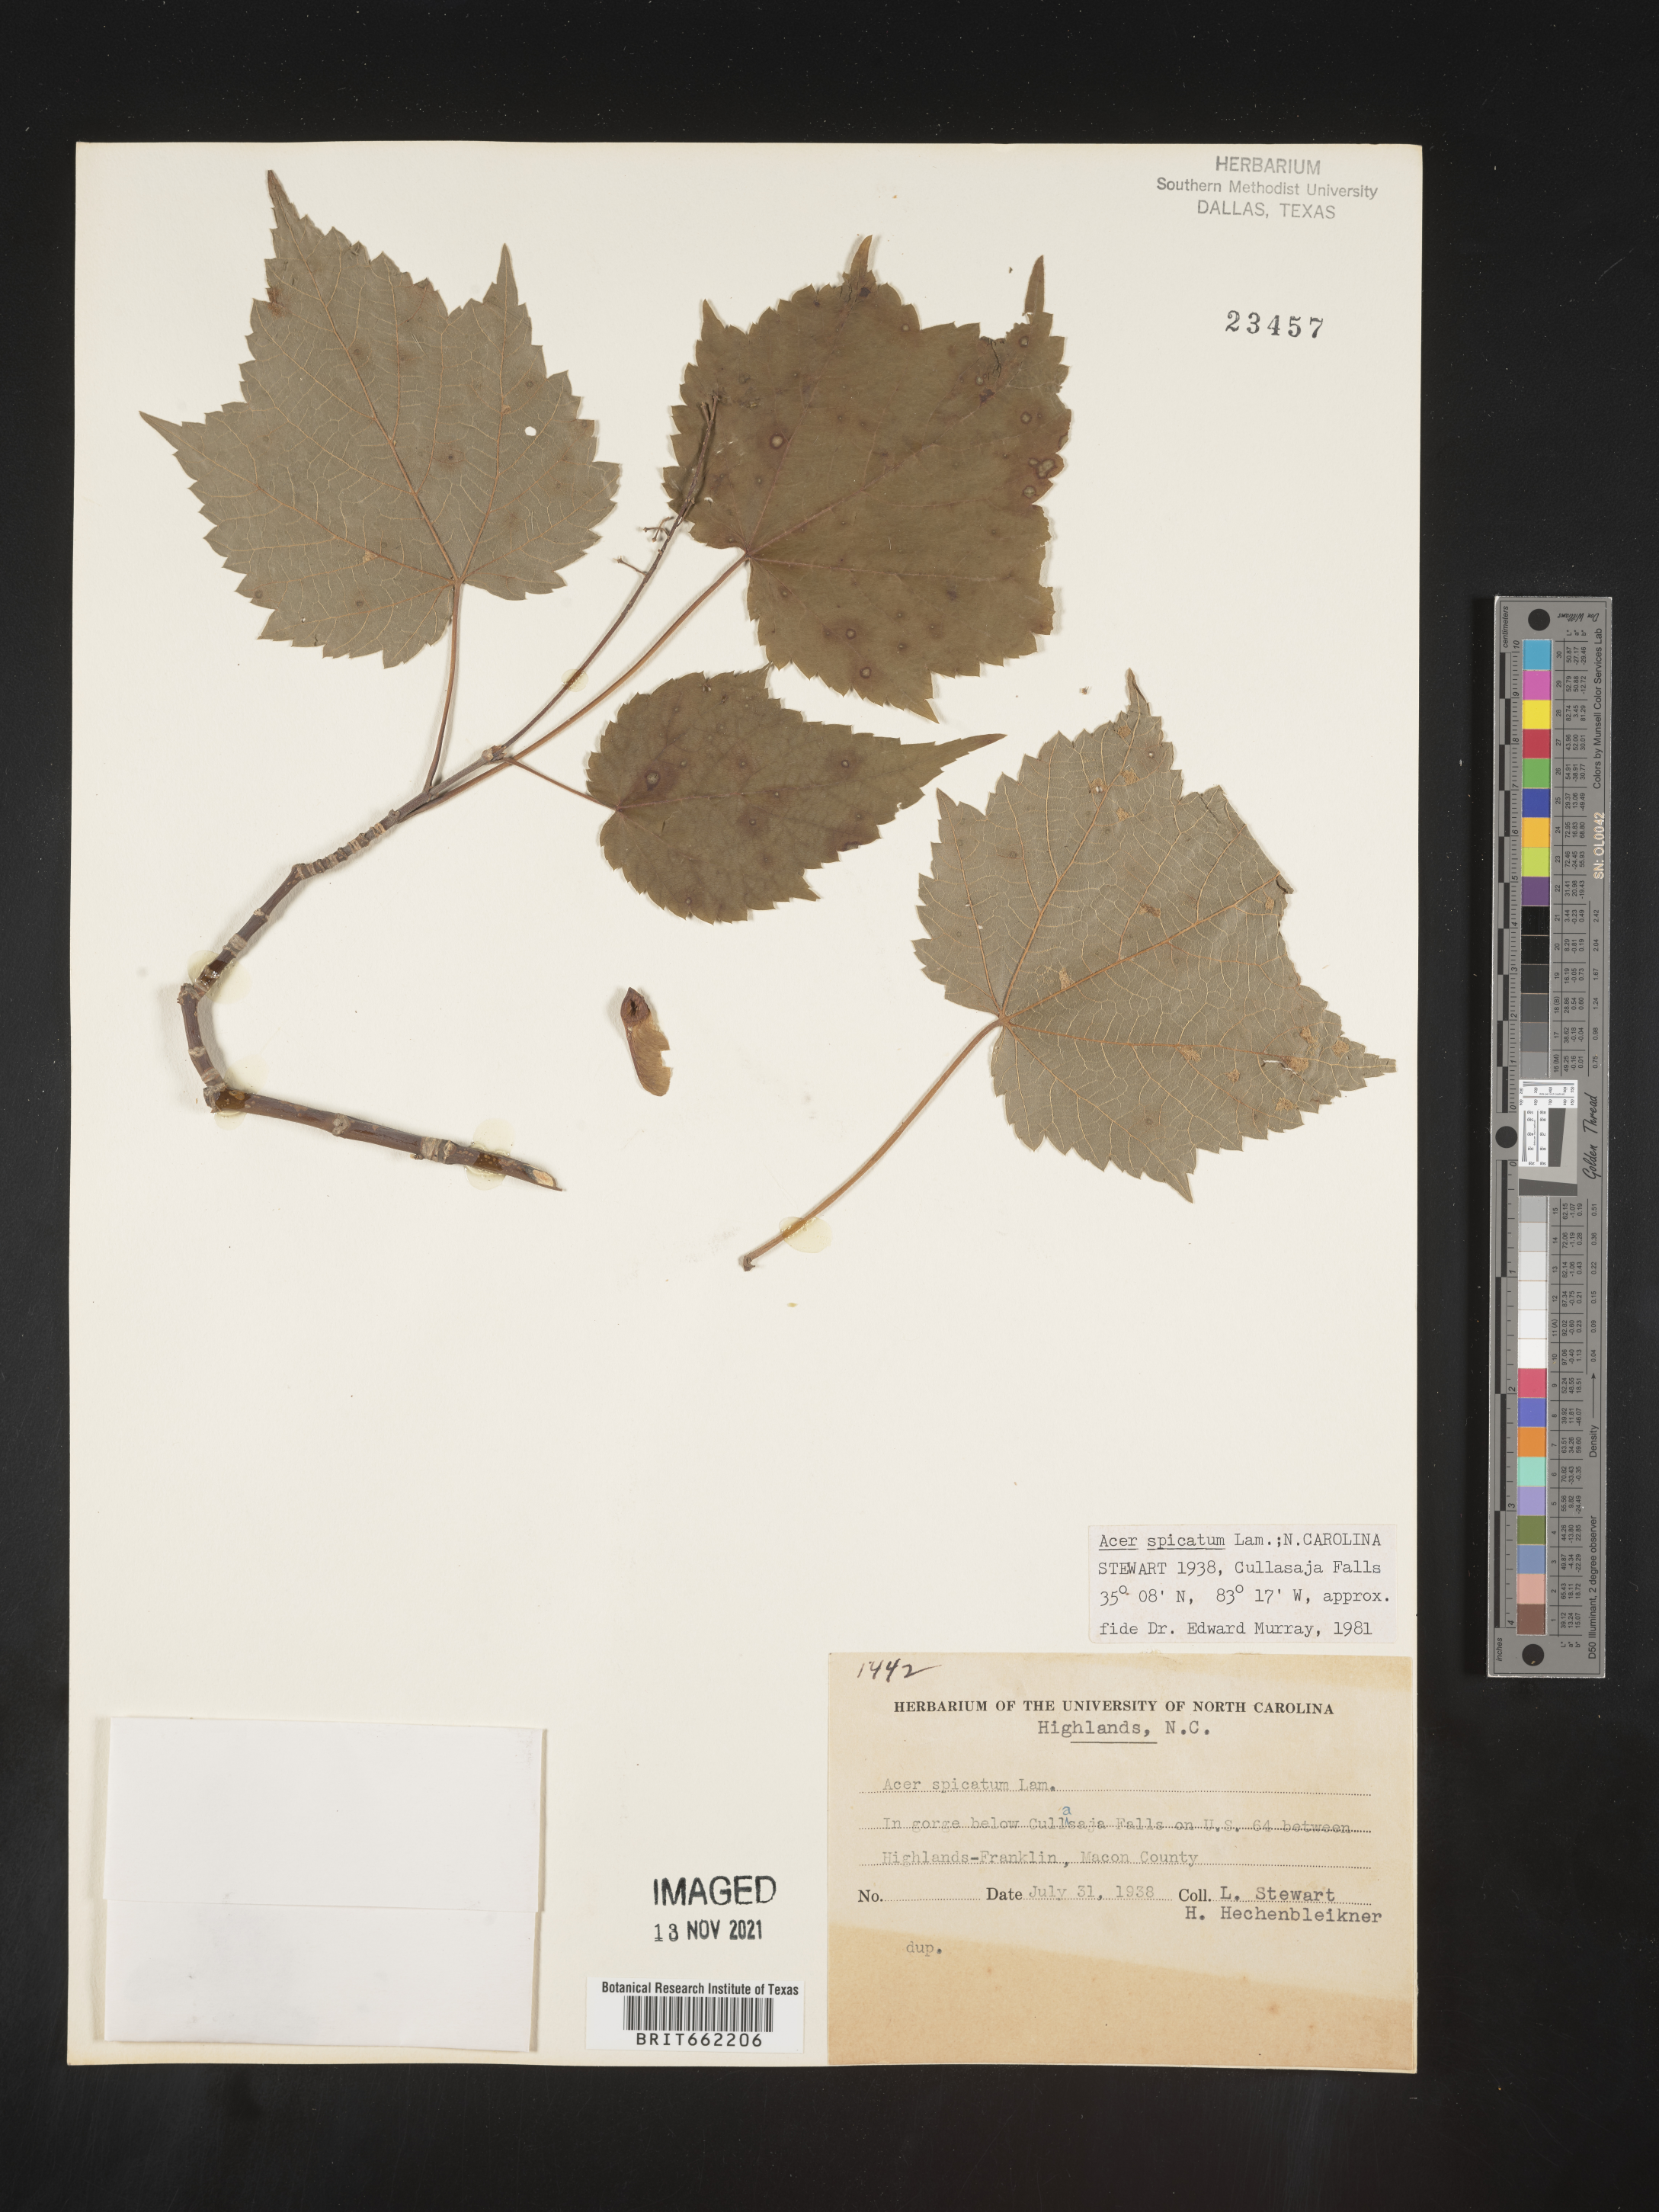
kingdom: Plantae
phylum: Tracheophyta
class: Magnoliopsida
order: Sapindales
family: Sapindaceae
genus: Acer
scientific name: Acer spicatum
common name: Mountain maple
